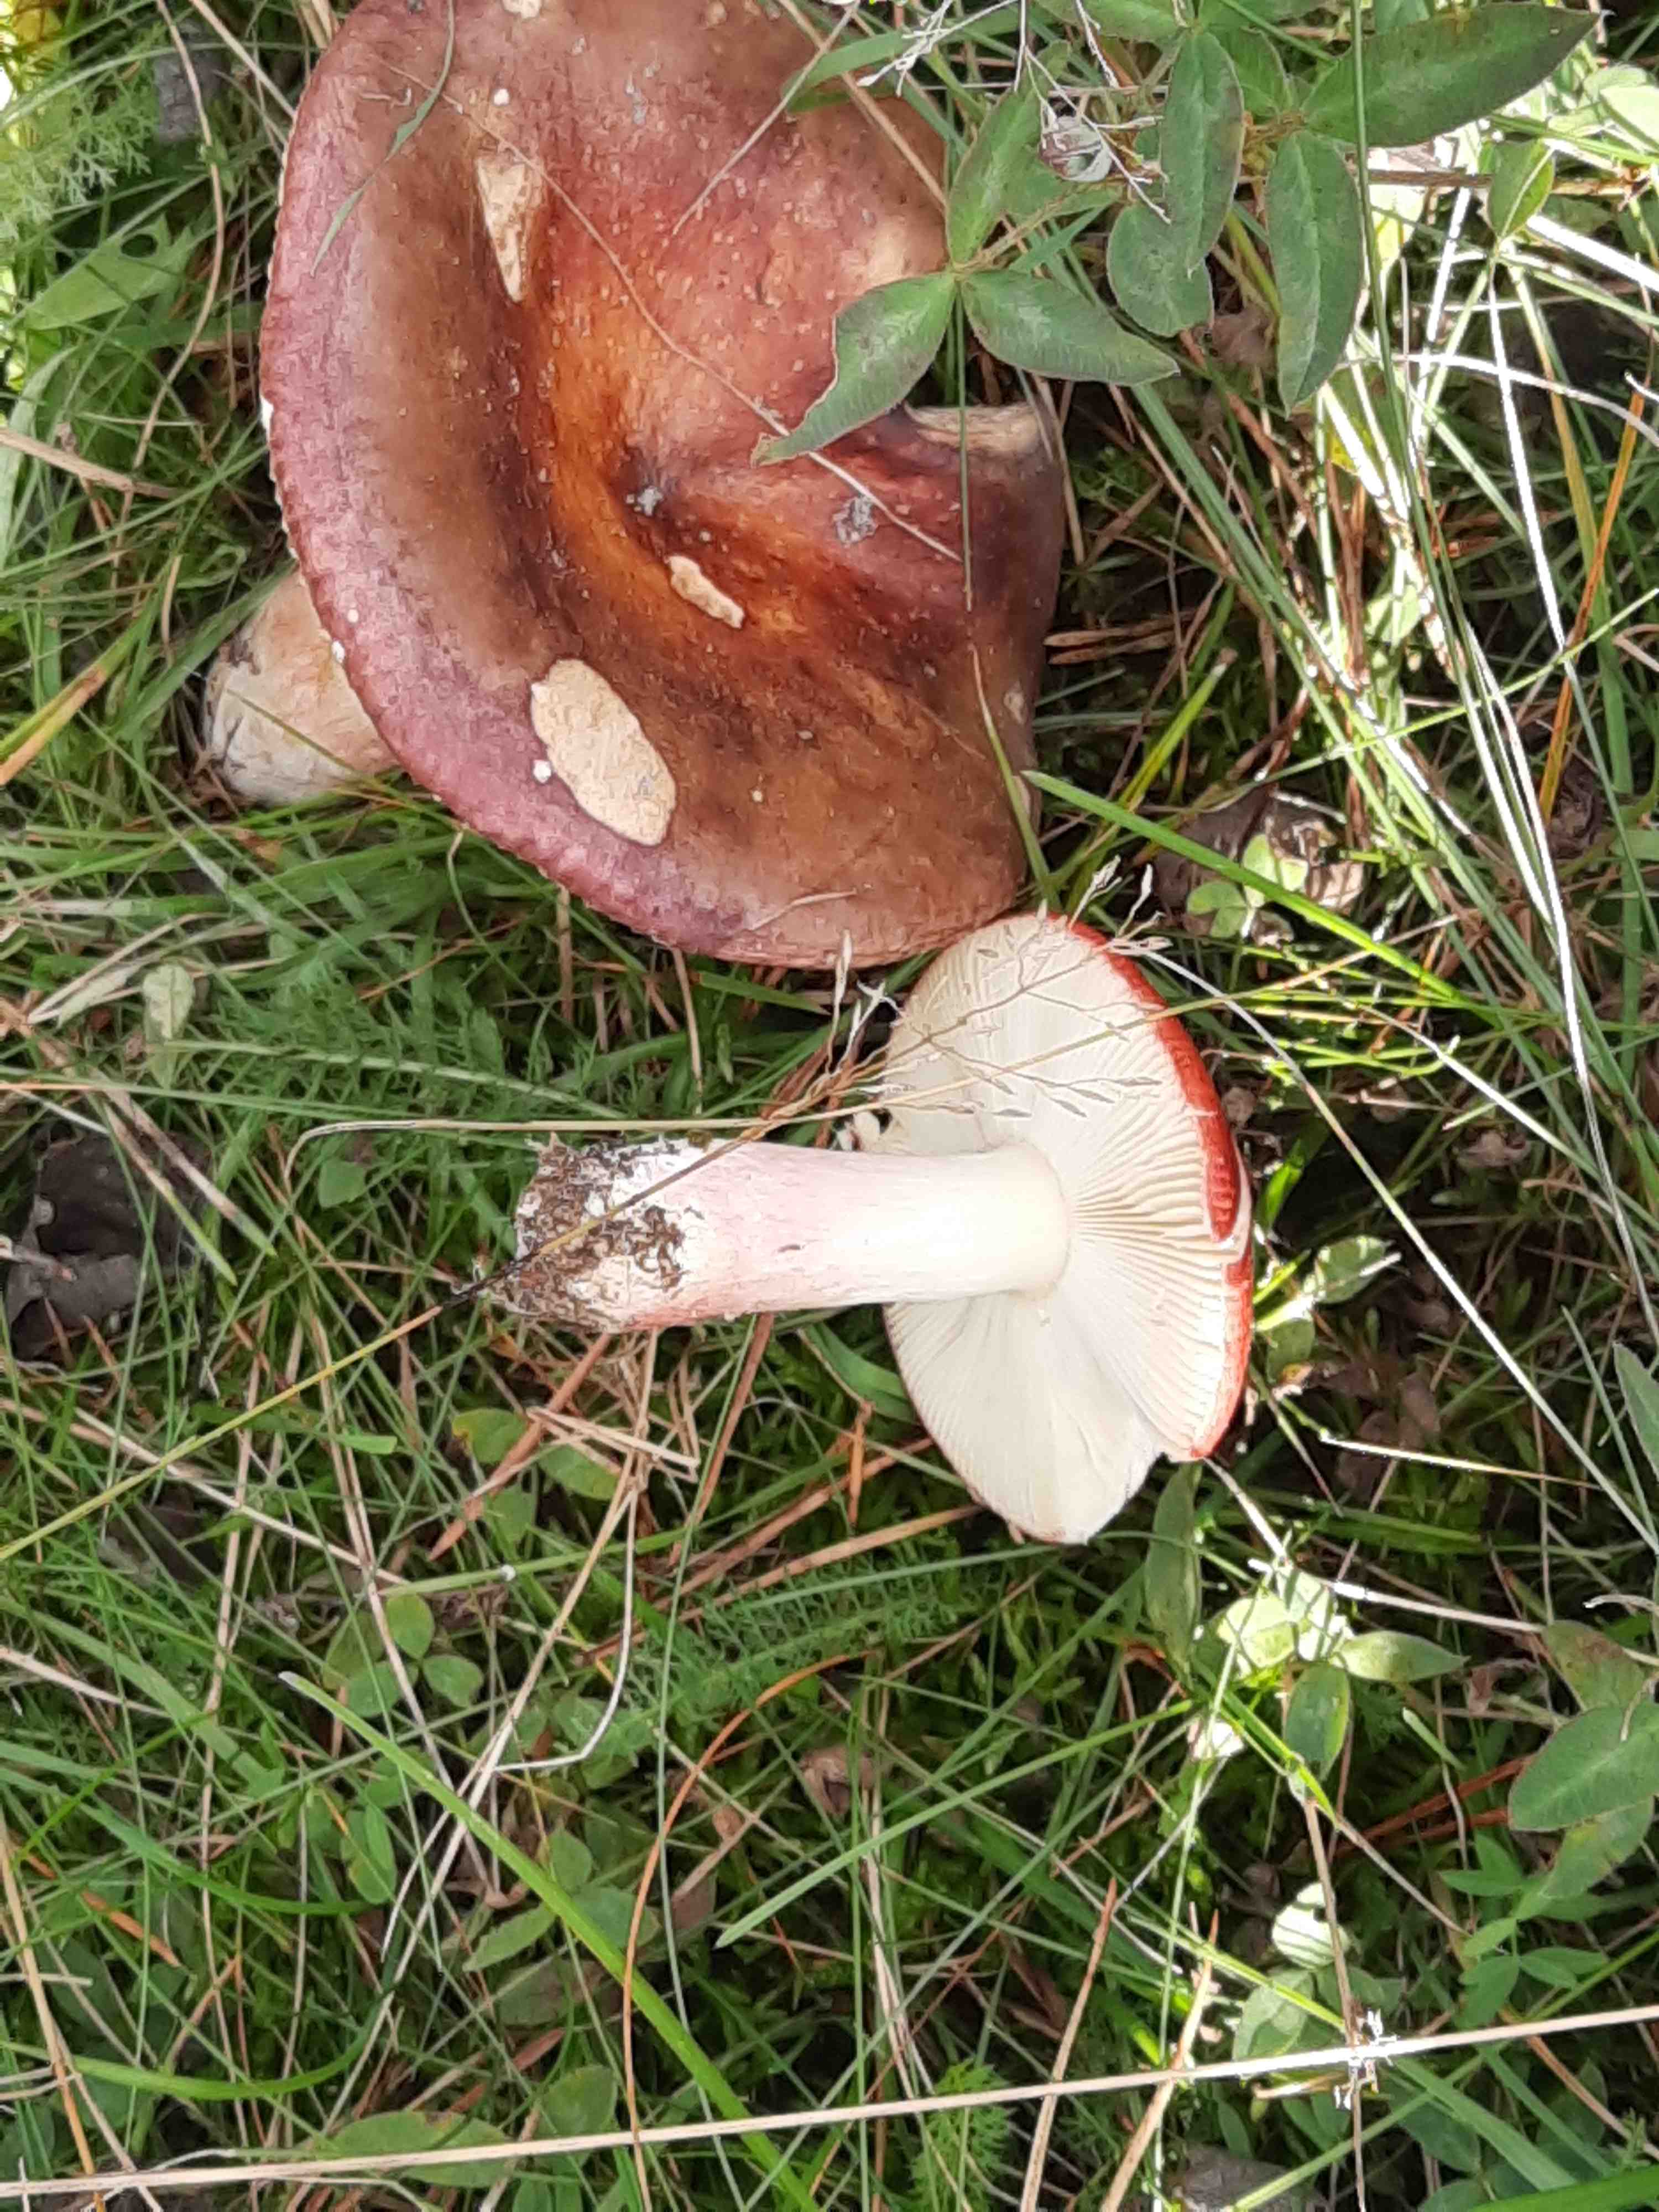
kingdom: Fungi
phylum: Basidiomycota
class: Agaricomycetes
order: Russulales
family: Russulaceae
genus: Russula
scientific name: Russula xerampelina
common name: hummer-skørhat
